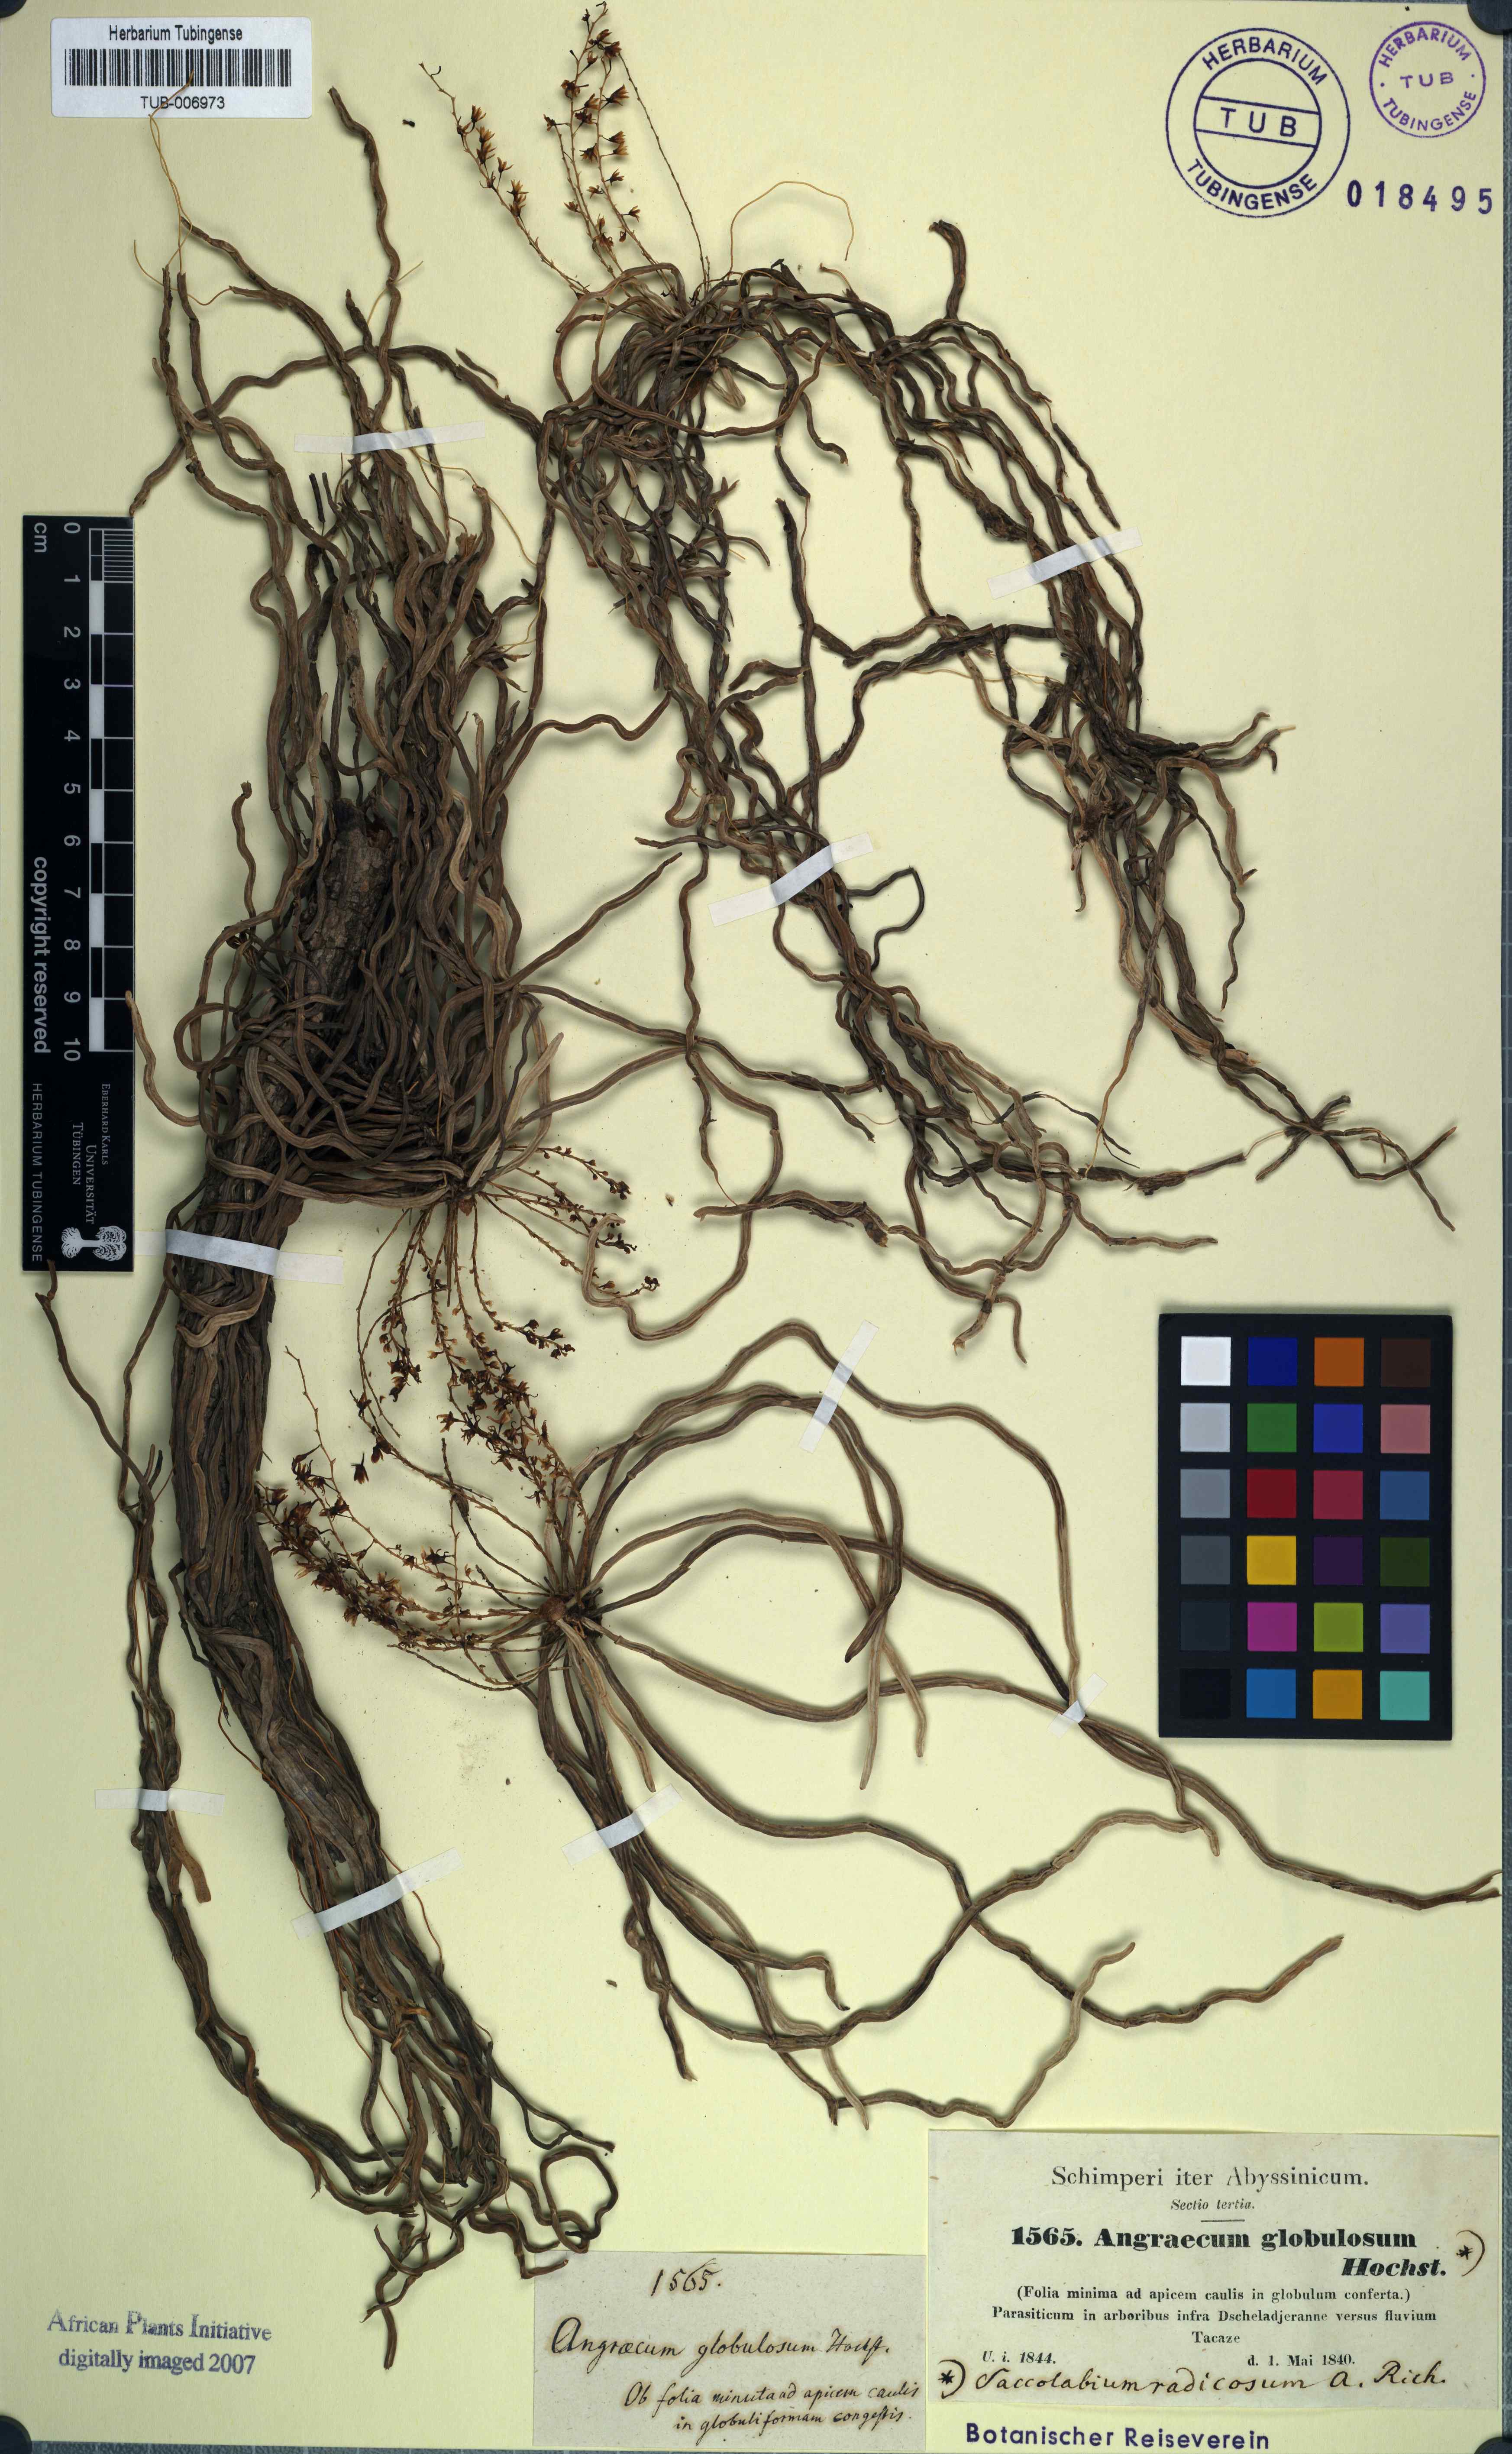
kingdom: Plantae
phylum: Tracheophyta
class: Liliopsida
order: Asparagales
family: Orchidaceae
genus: Microcoelia
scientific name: Microcoelia globulosa
